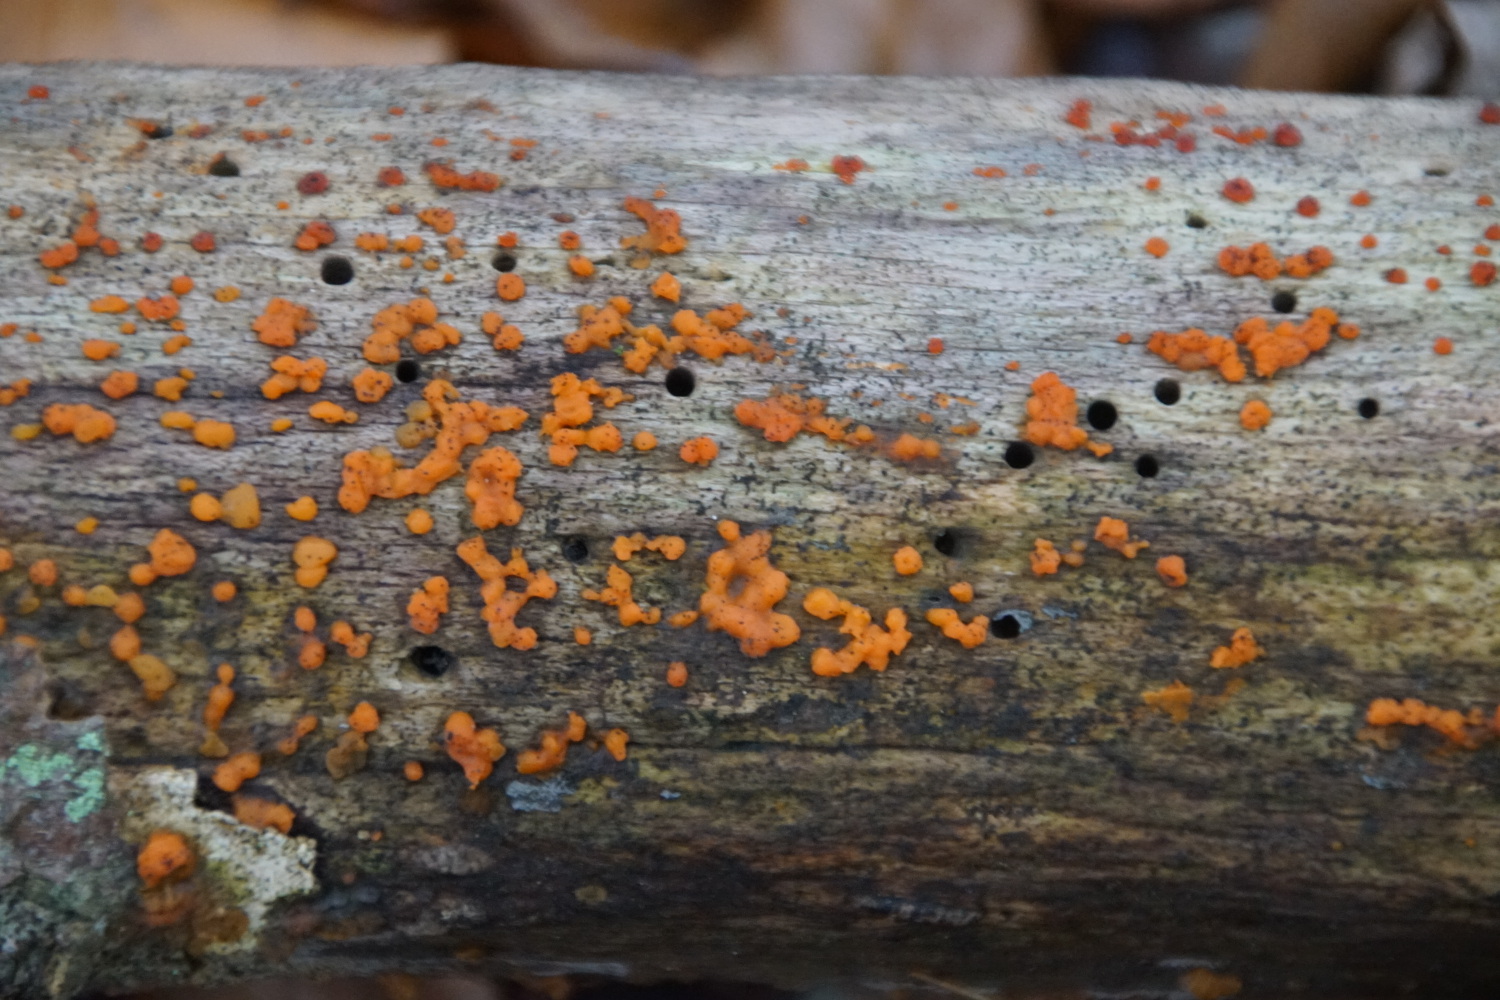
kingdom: Fungi
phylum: Basidiomycota
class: Dacrymycetes
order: Dacrymycetales
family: Dacrymycetaceae
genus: Dacrymyces
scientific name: Dacrymyces stillatus
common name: almindelig tåresvamp
